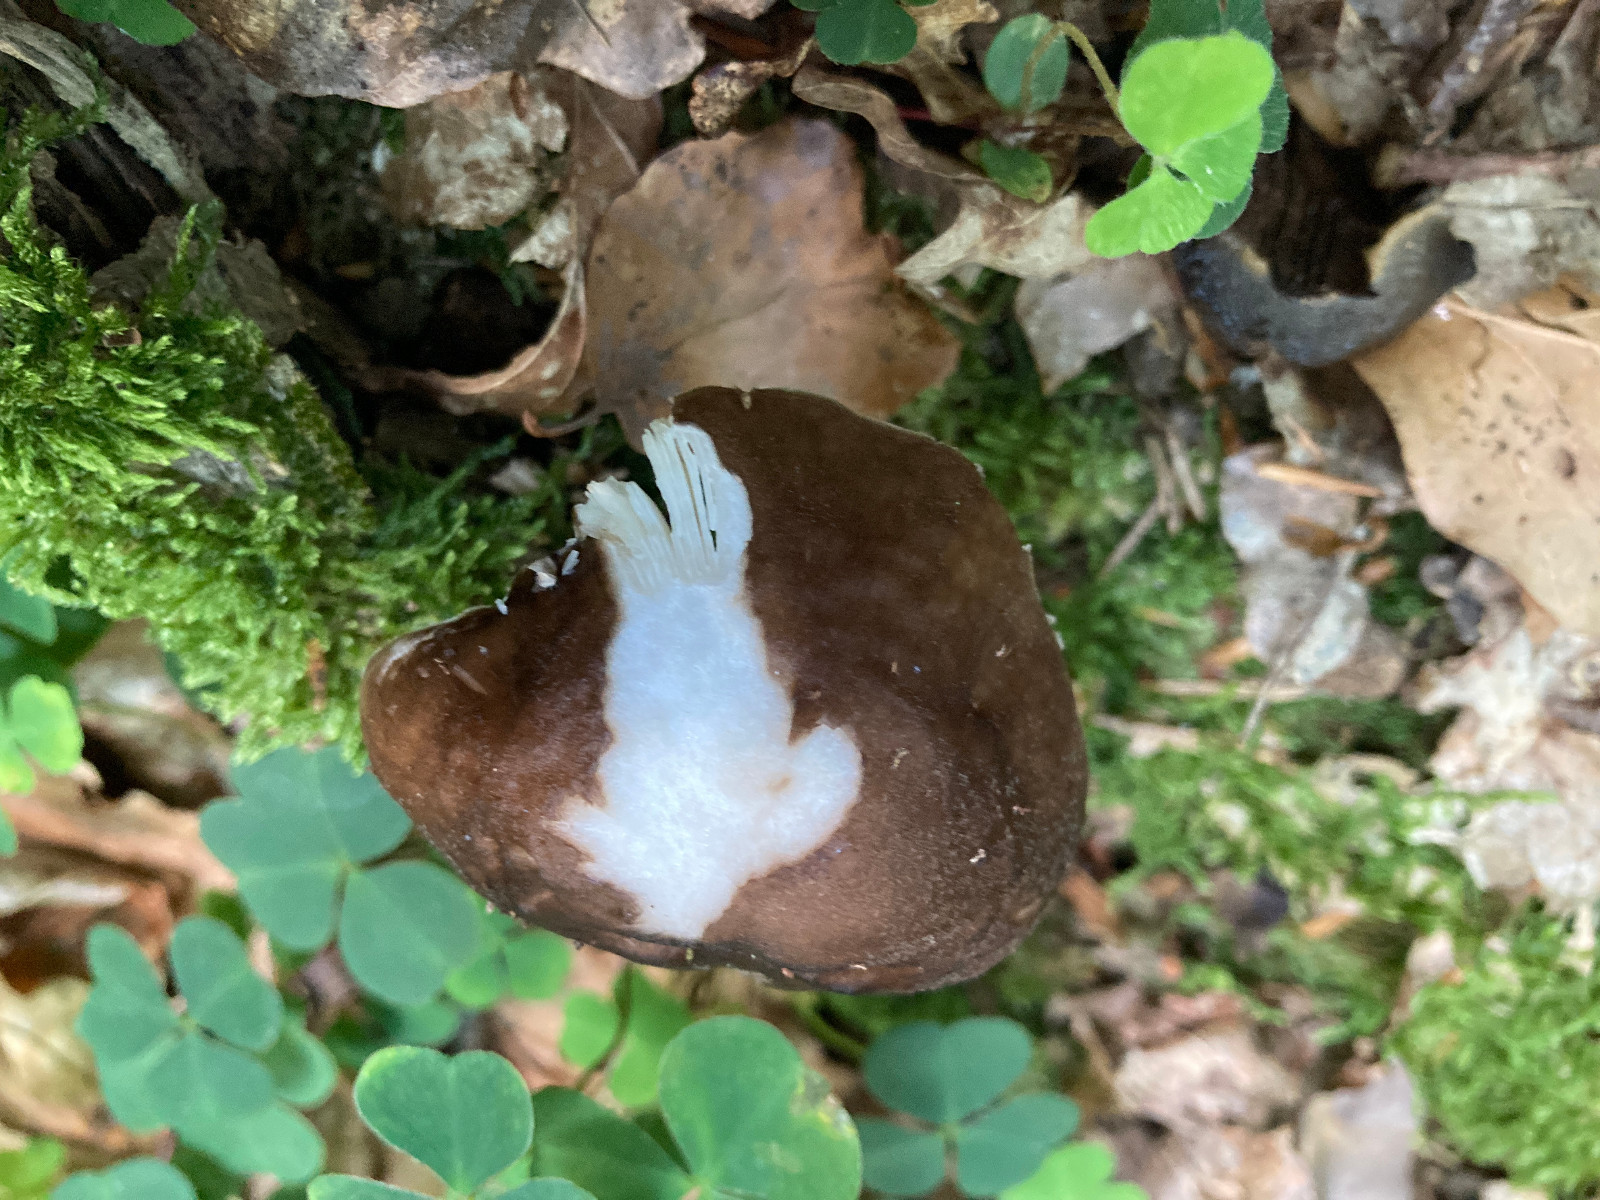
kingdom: Fungi
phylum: Basidiomycota
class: Agaricomycetes
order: Agaricales
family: Pluteaceae
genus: Pluteus
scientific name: Pluteus cervinus
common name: sodfarvet skærmhat
